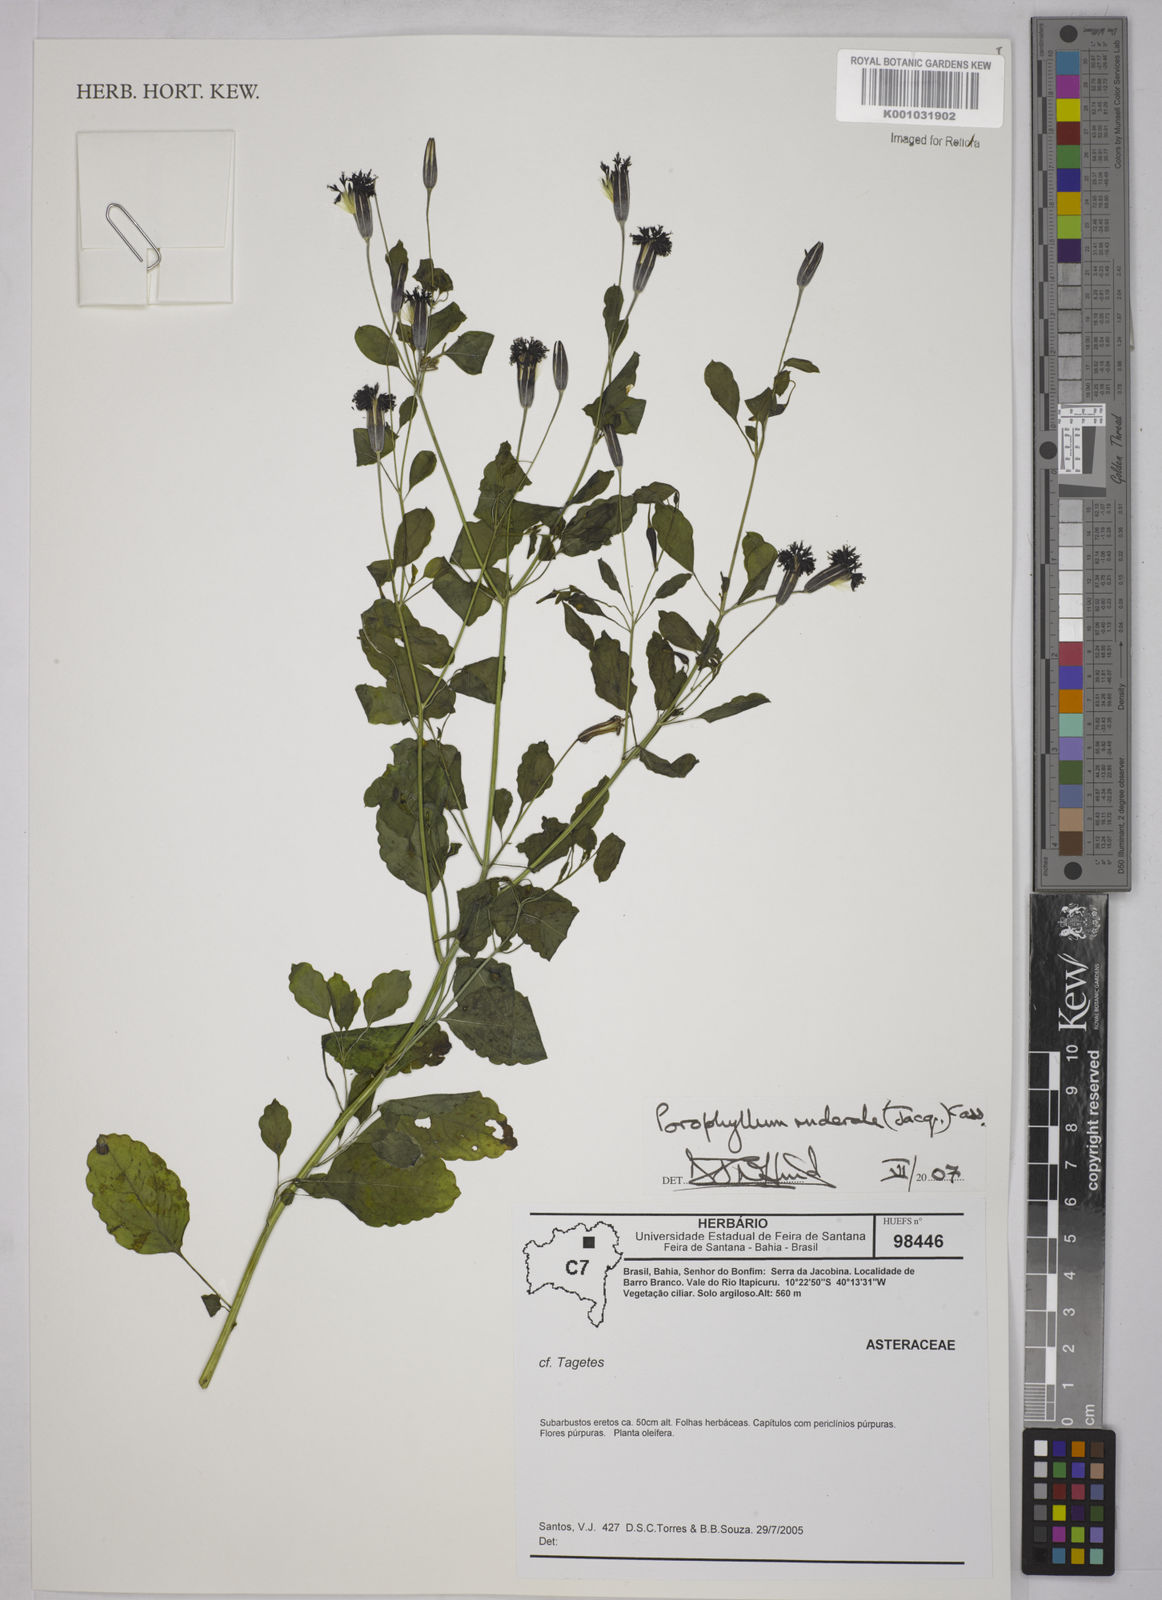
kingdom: Plantae
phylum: Tracheophyta
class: Magnoliopsida
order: Asterales
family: Asteraceae
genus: Porophyllum
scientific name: Porophyllum ruderale
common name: Yerba porosa
